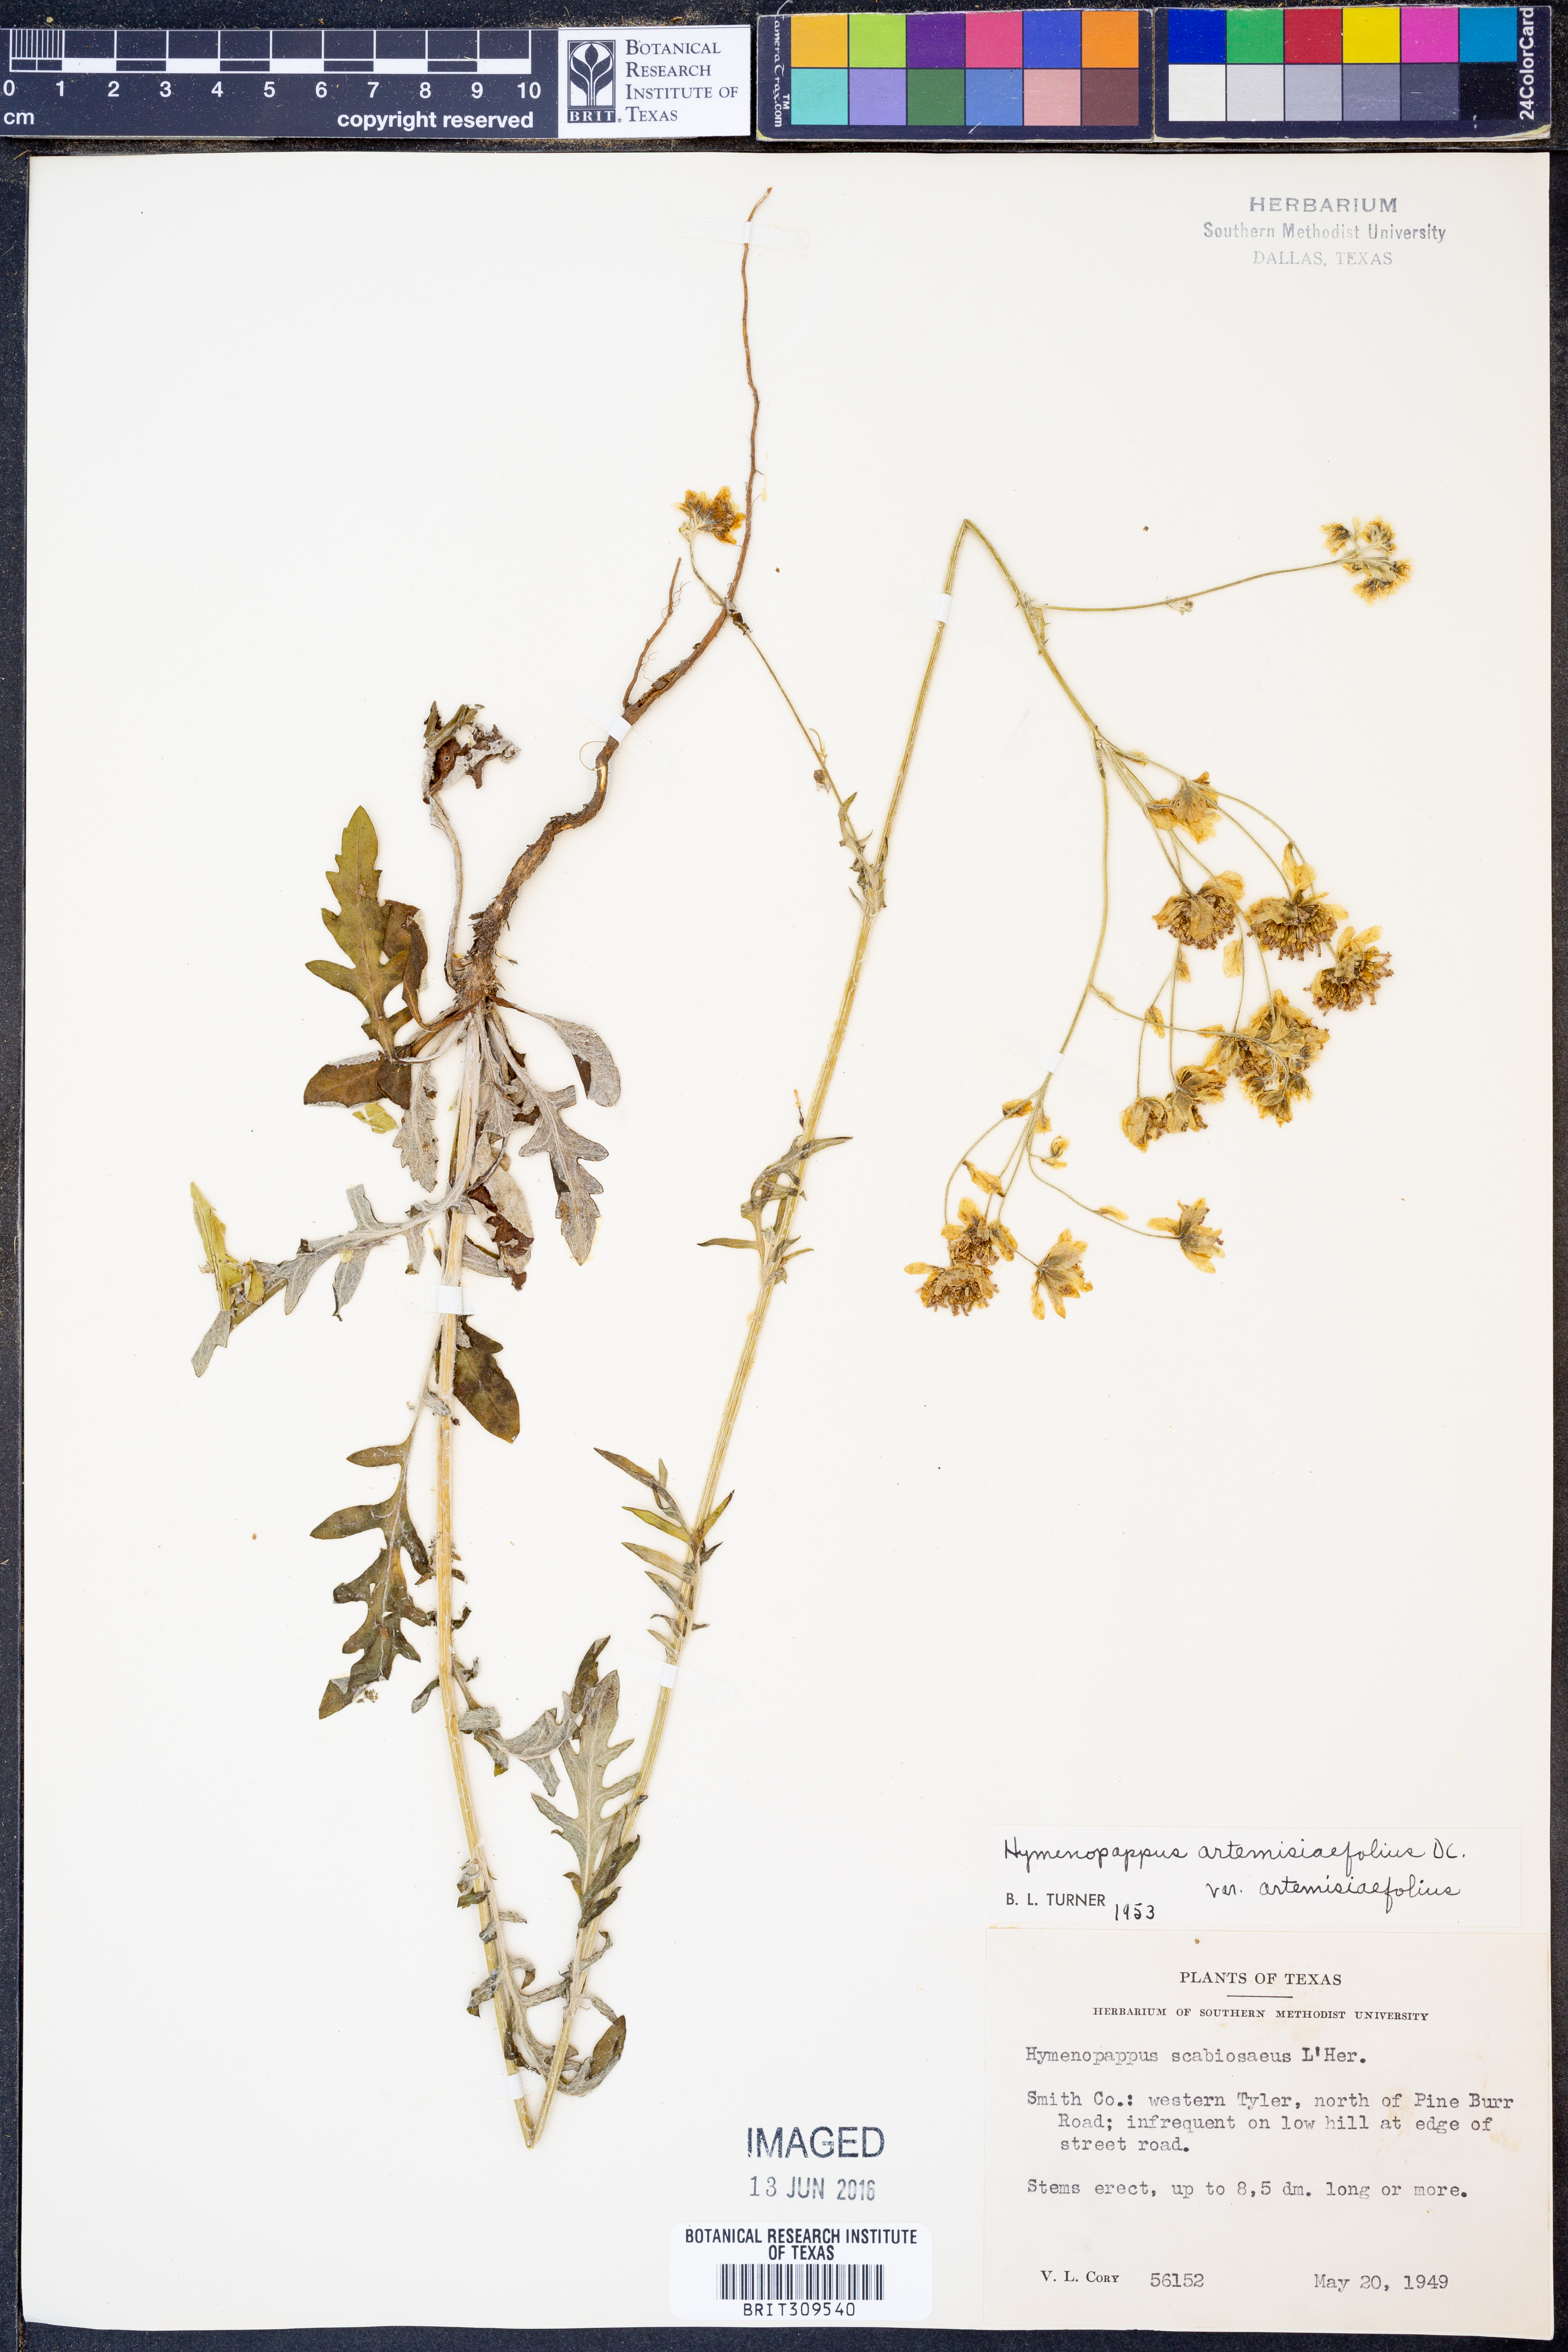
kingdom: Plantae
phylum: Tracheophyta
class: Magnoliopsida
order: Asterales
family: Asteraceae
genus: Hymenopappus
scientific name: Hymenopappus artemisiifolius
